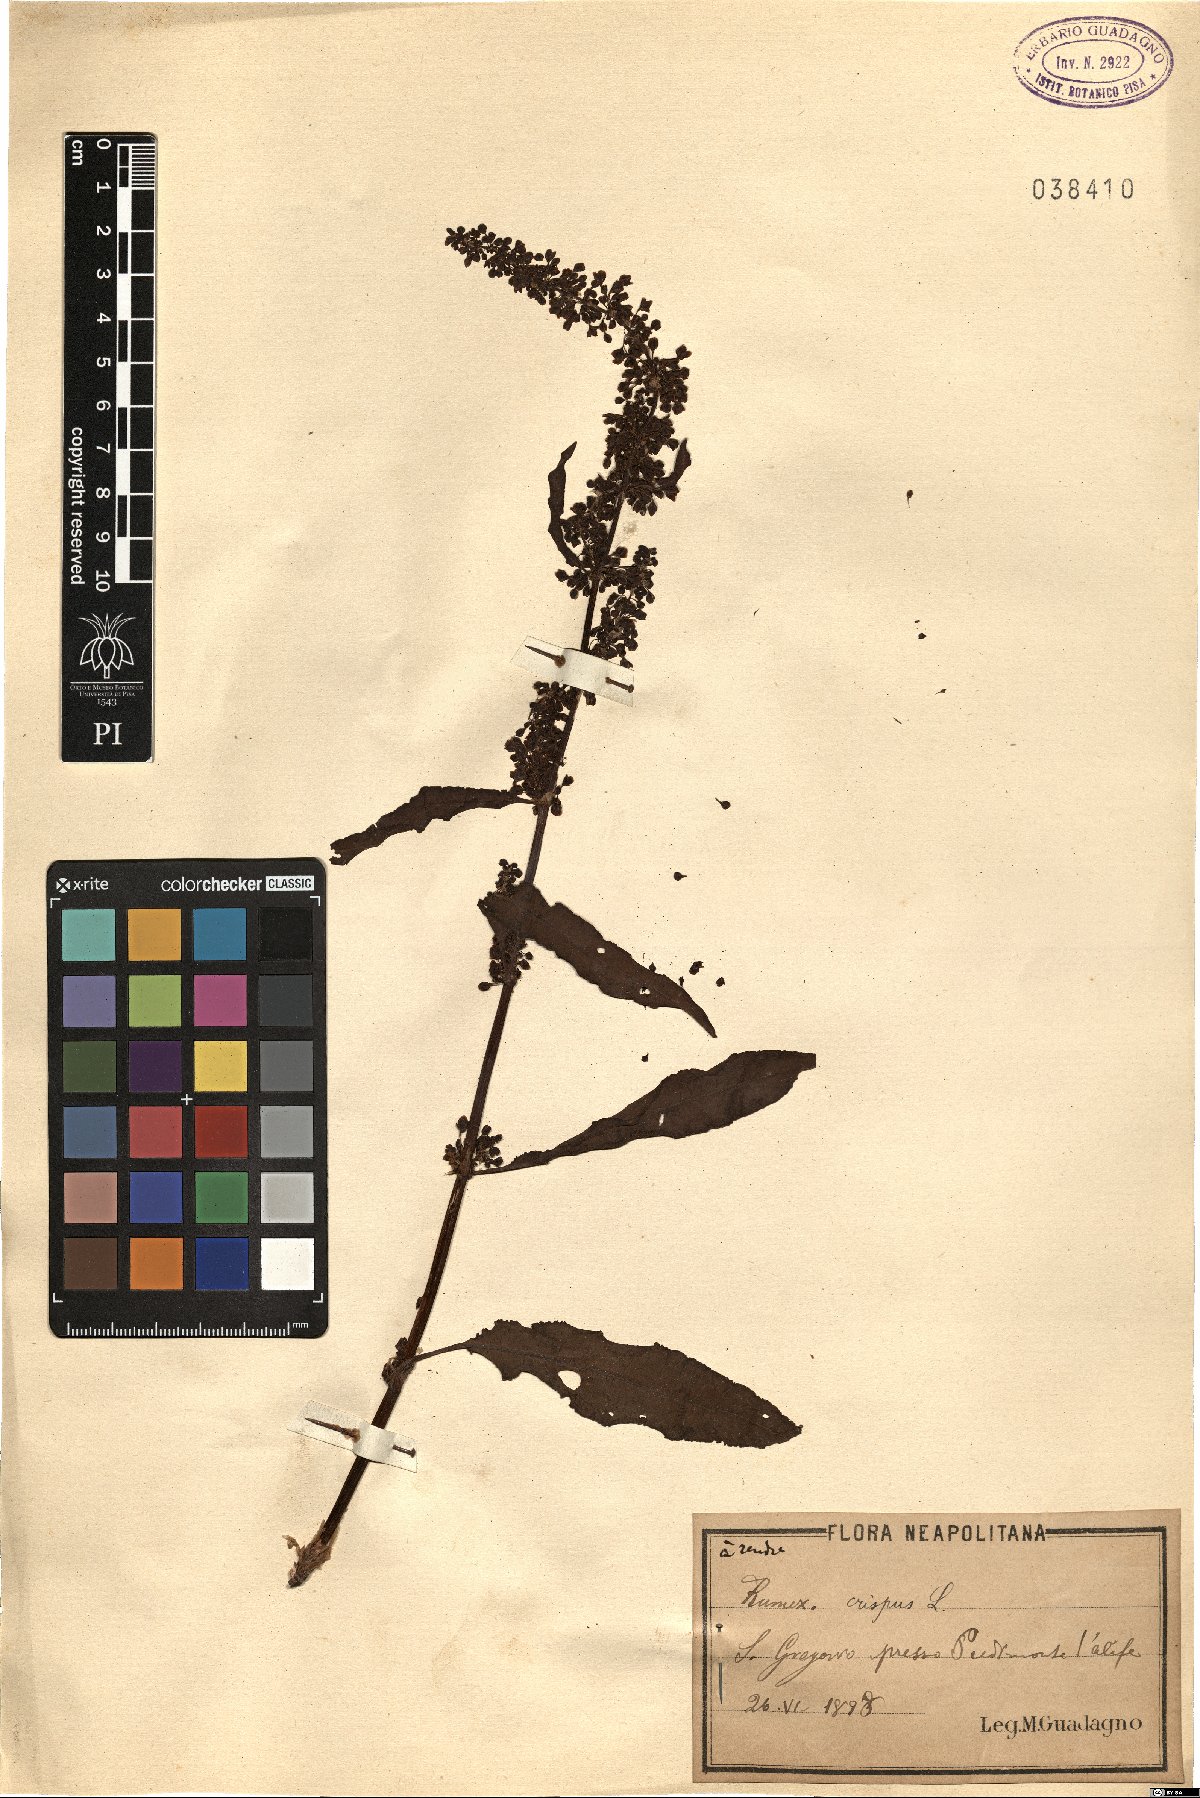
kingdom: Plantae
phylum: Tracheophyta
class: Magnoliopsida
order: Caryophyllales
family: Polygonaceae
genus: Rumex
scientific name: Rumex crispus
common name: Curled dock
